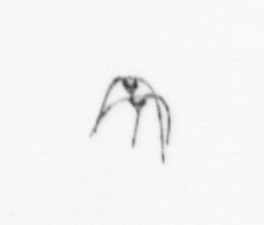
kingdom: Chromista
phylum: Myzozoa
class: Dinophyceae
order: Gonyaulacales
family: Ceratiaceae
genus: Ceratium
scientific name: Ceratium
